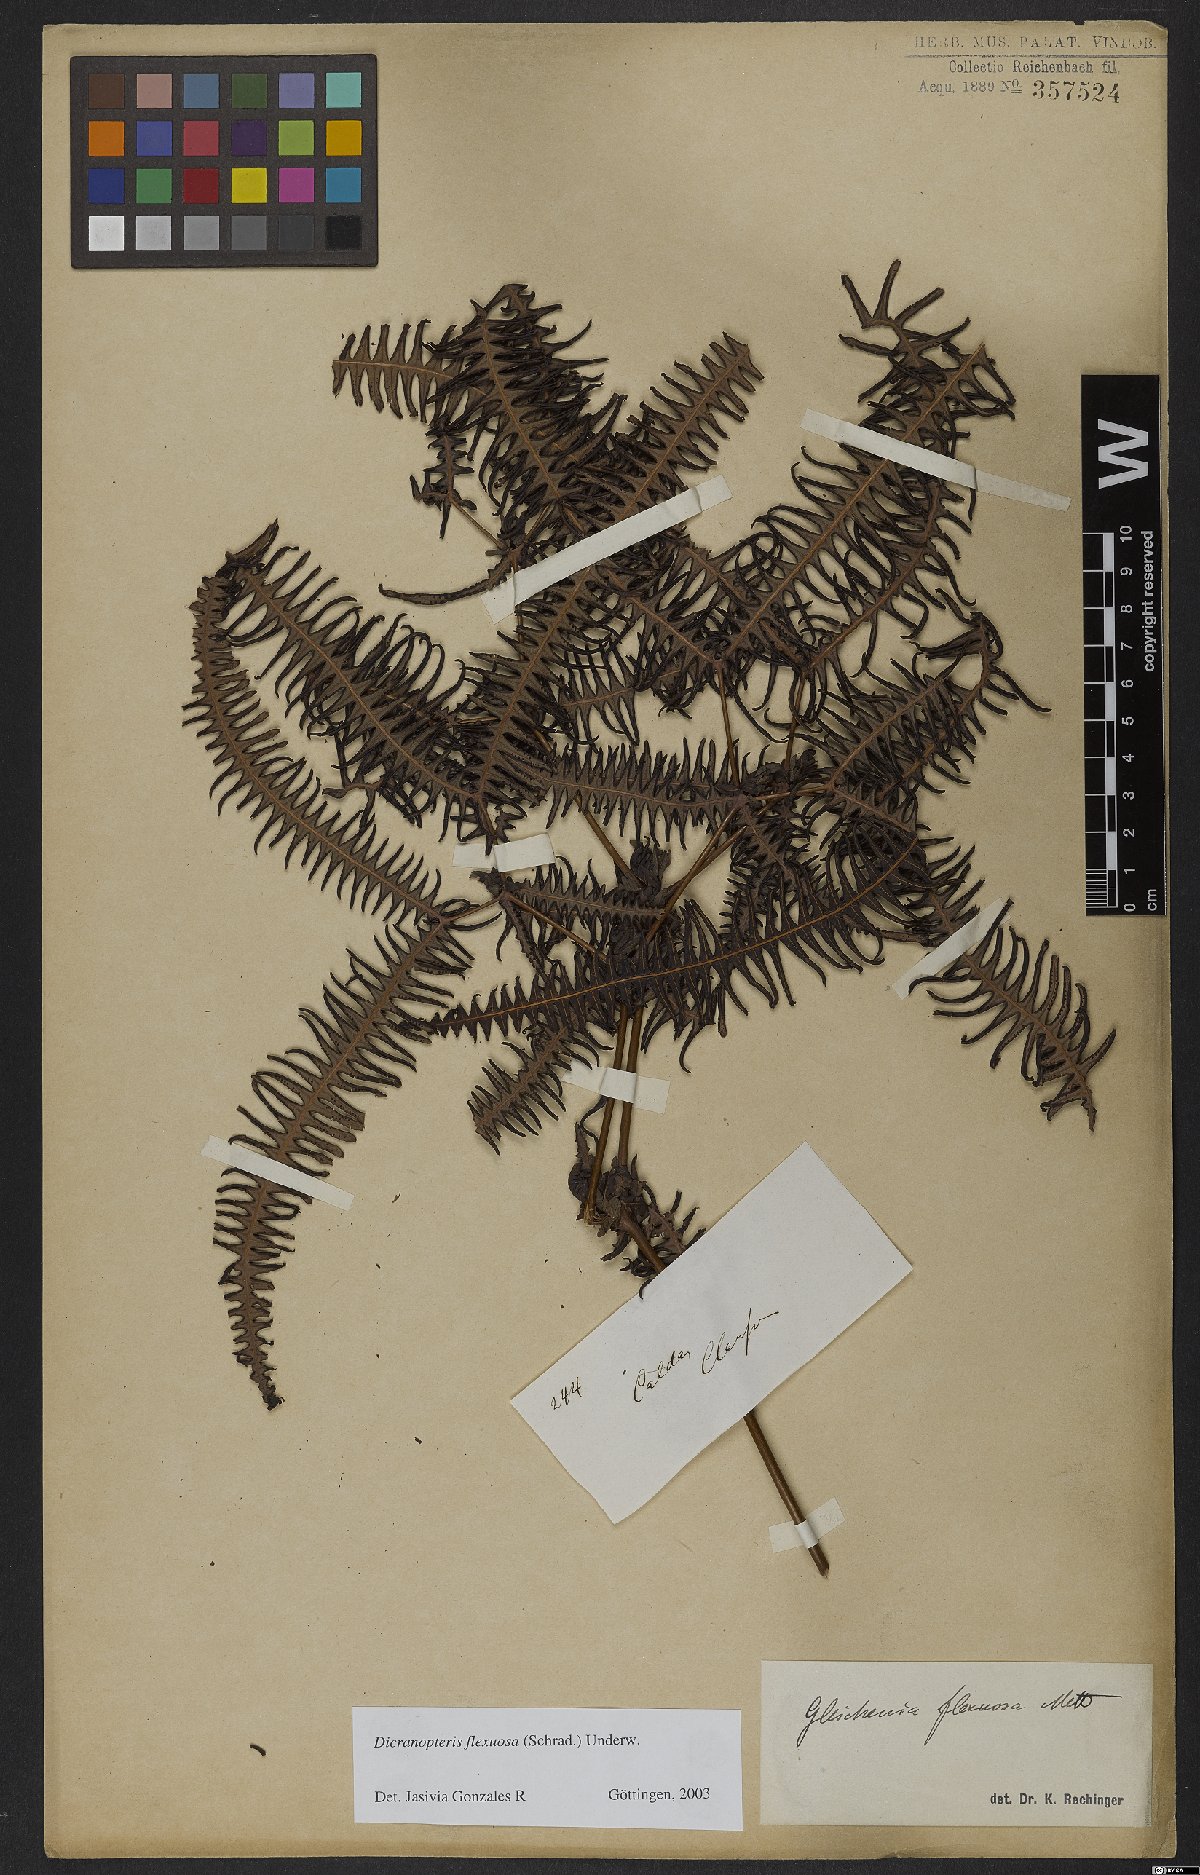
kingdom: Plantae
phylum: Tracheophyta
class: Polypodiopsida
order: Gleicheniales
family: Gleicheniaceae
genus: Dicranopteris
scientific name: Dicranopteris flexuosa
